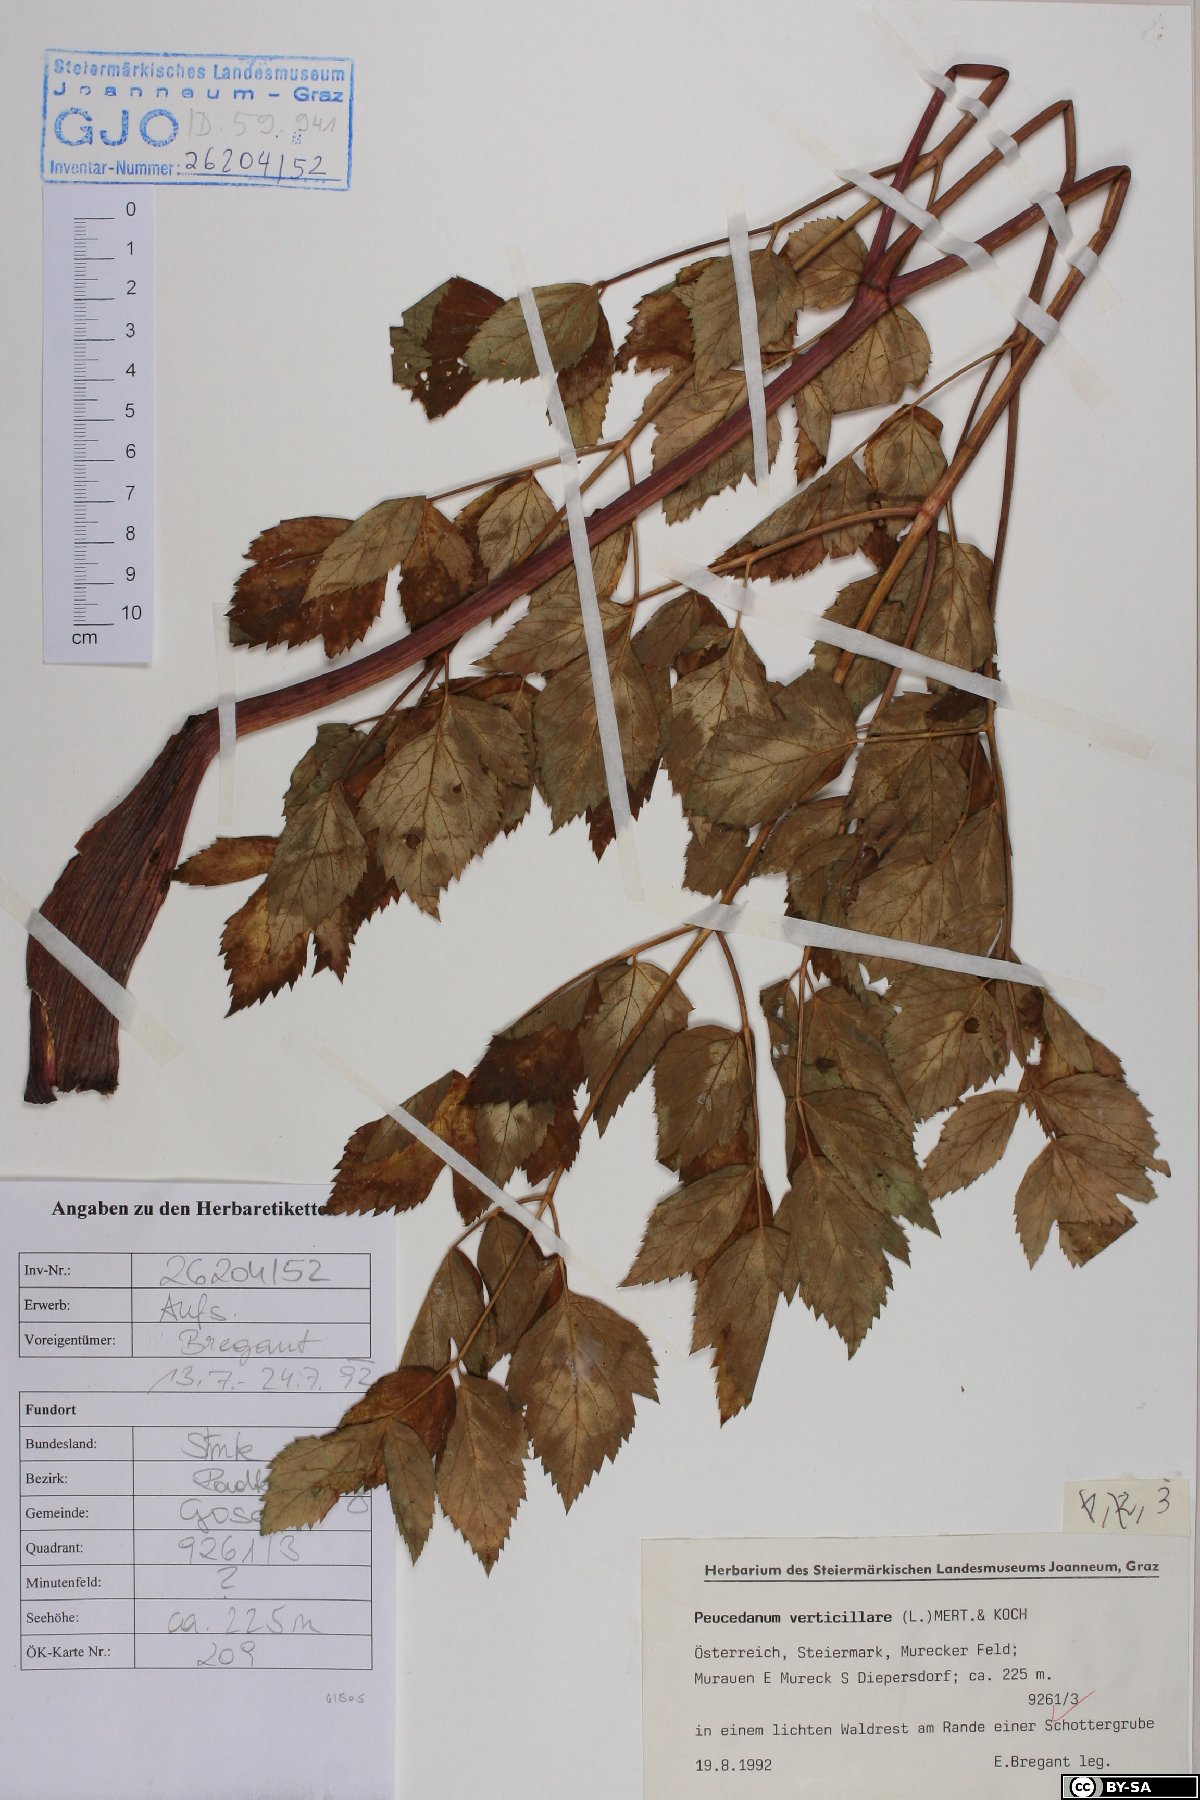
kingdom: Plantae
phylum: Tracheophyta
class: Magnoliopsida
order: Apiales
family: Apiaceae
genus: Tommasinia
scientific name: Tommasinia altissima
